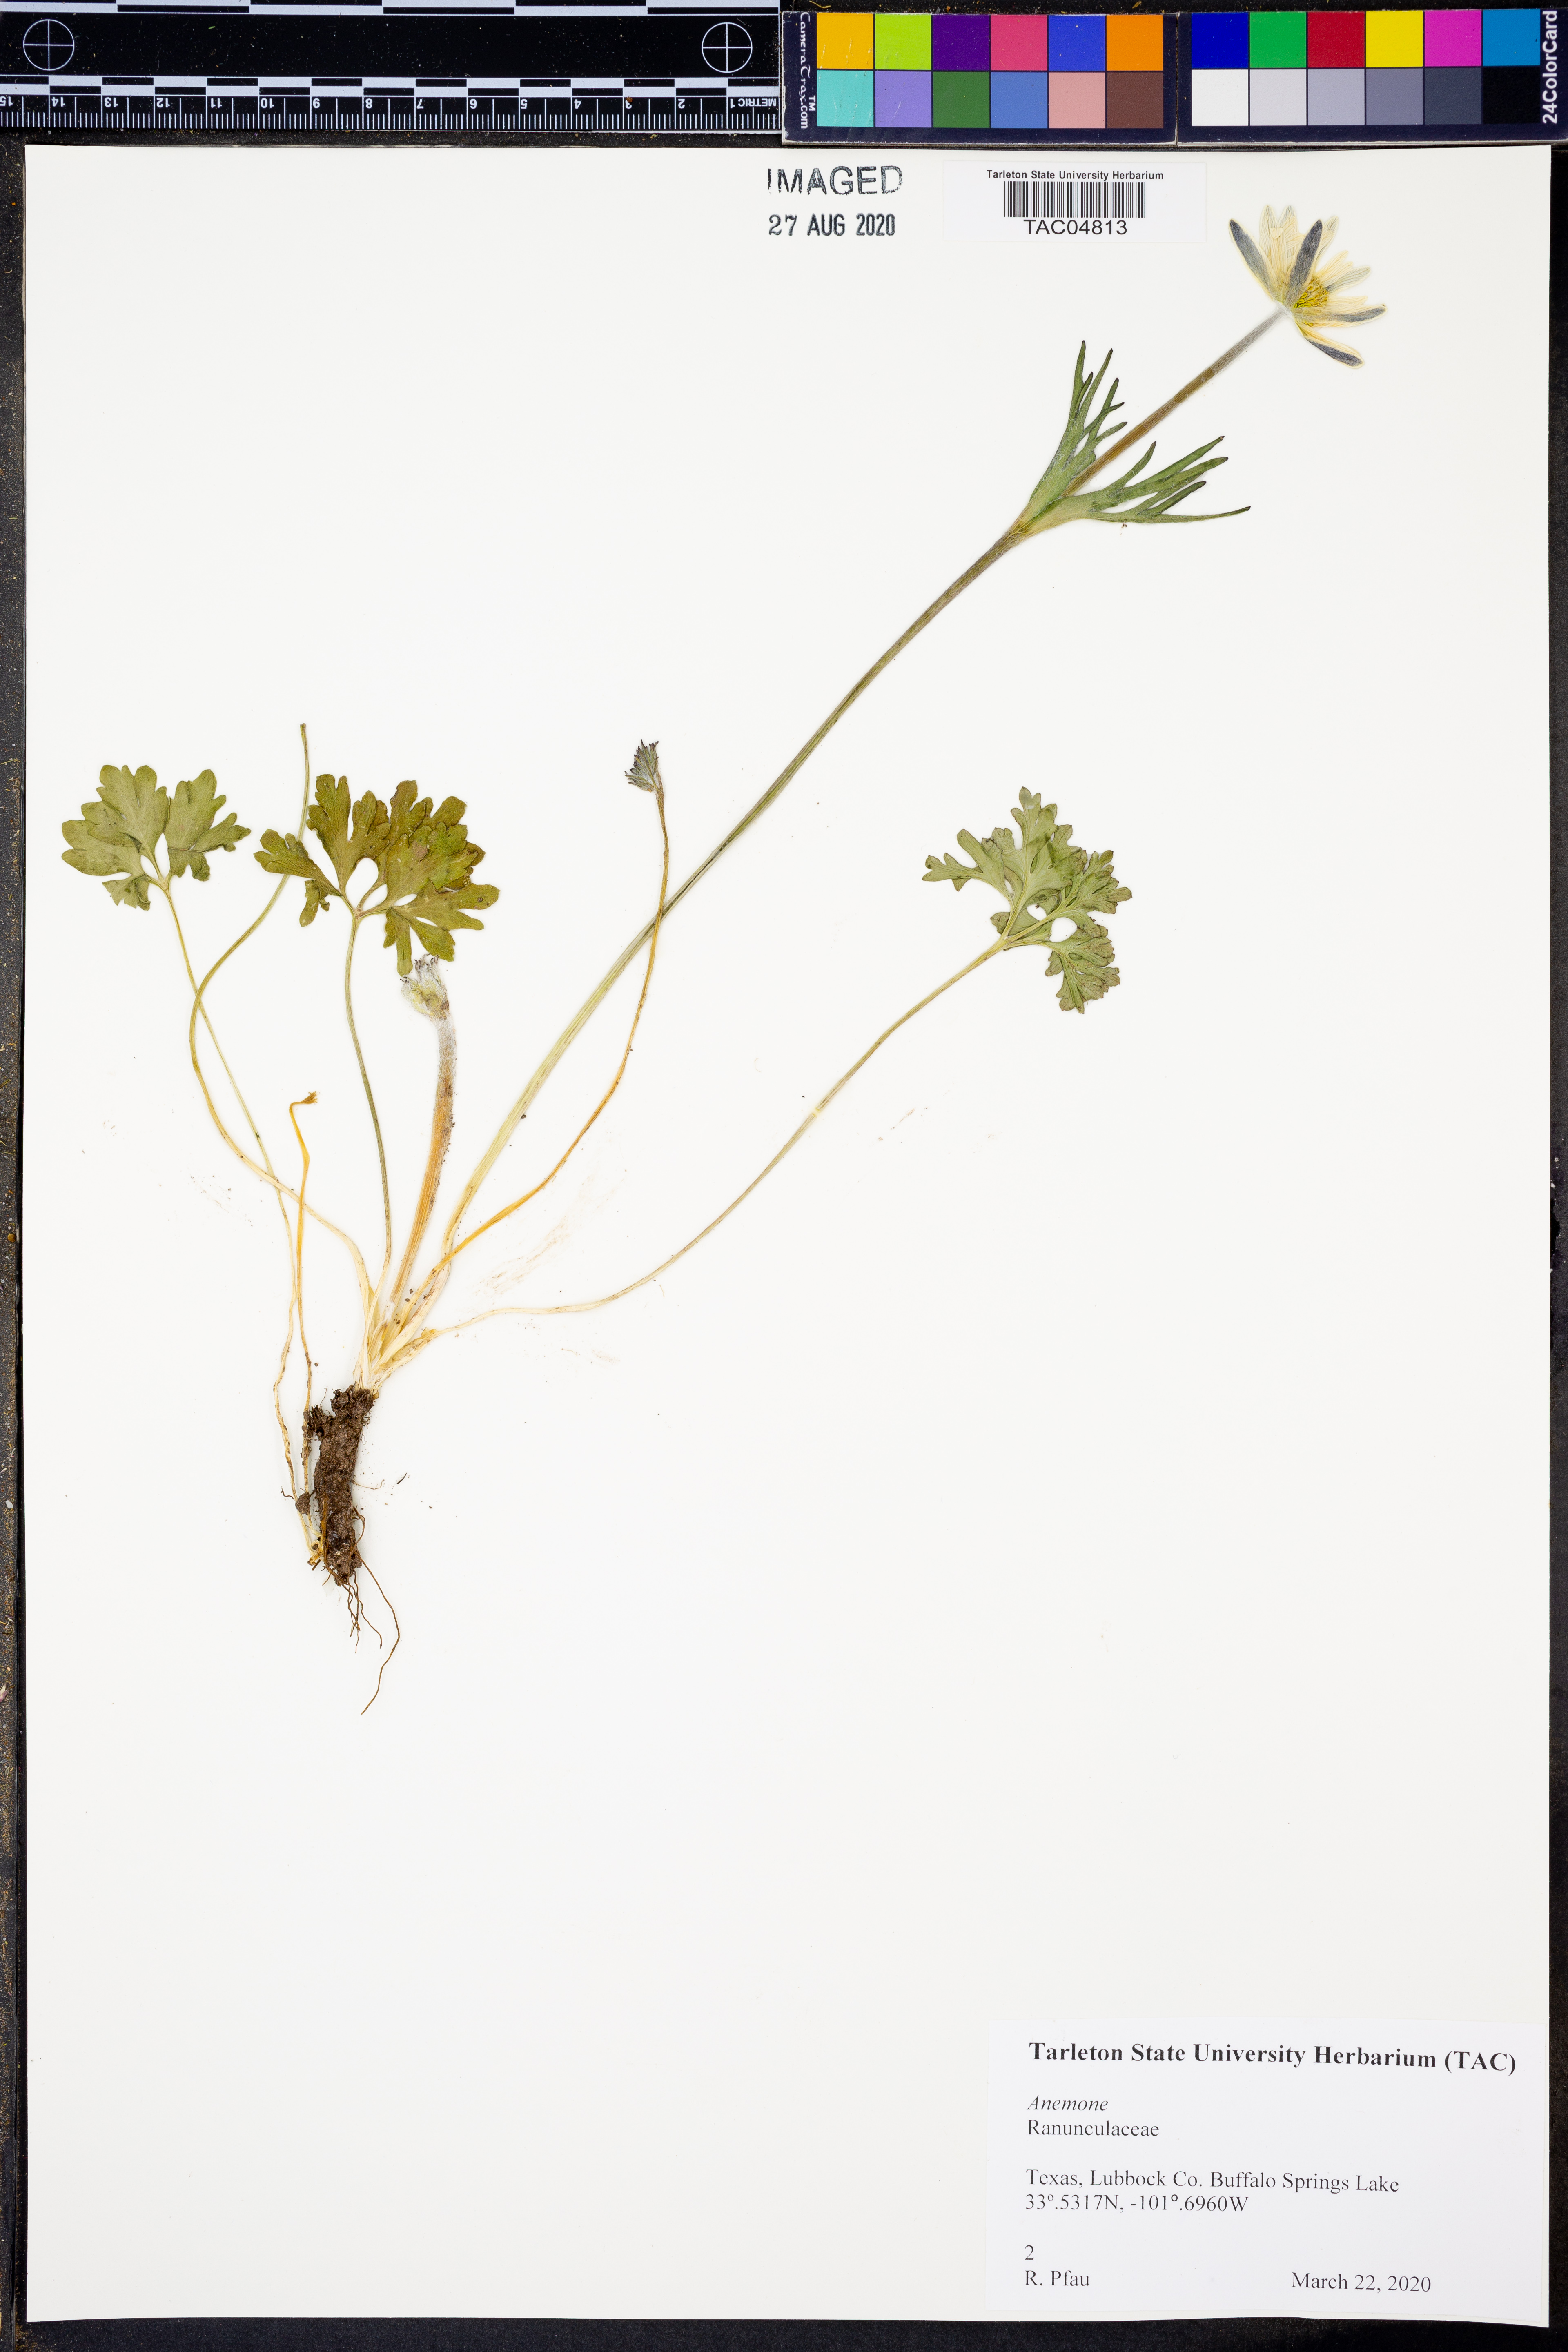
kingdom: Plantae
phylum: Tracheophyta
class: Magnoliopsida
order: Ranunculales
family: Ranunculaceae
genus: Anemone
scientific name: Anemone
